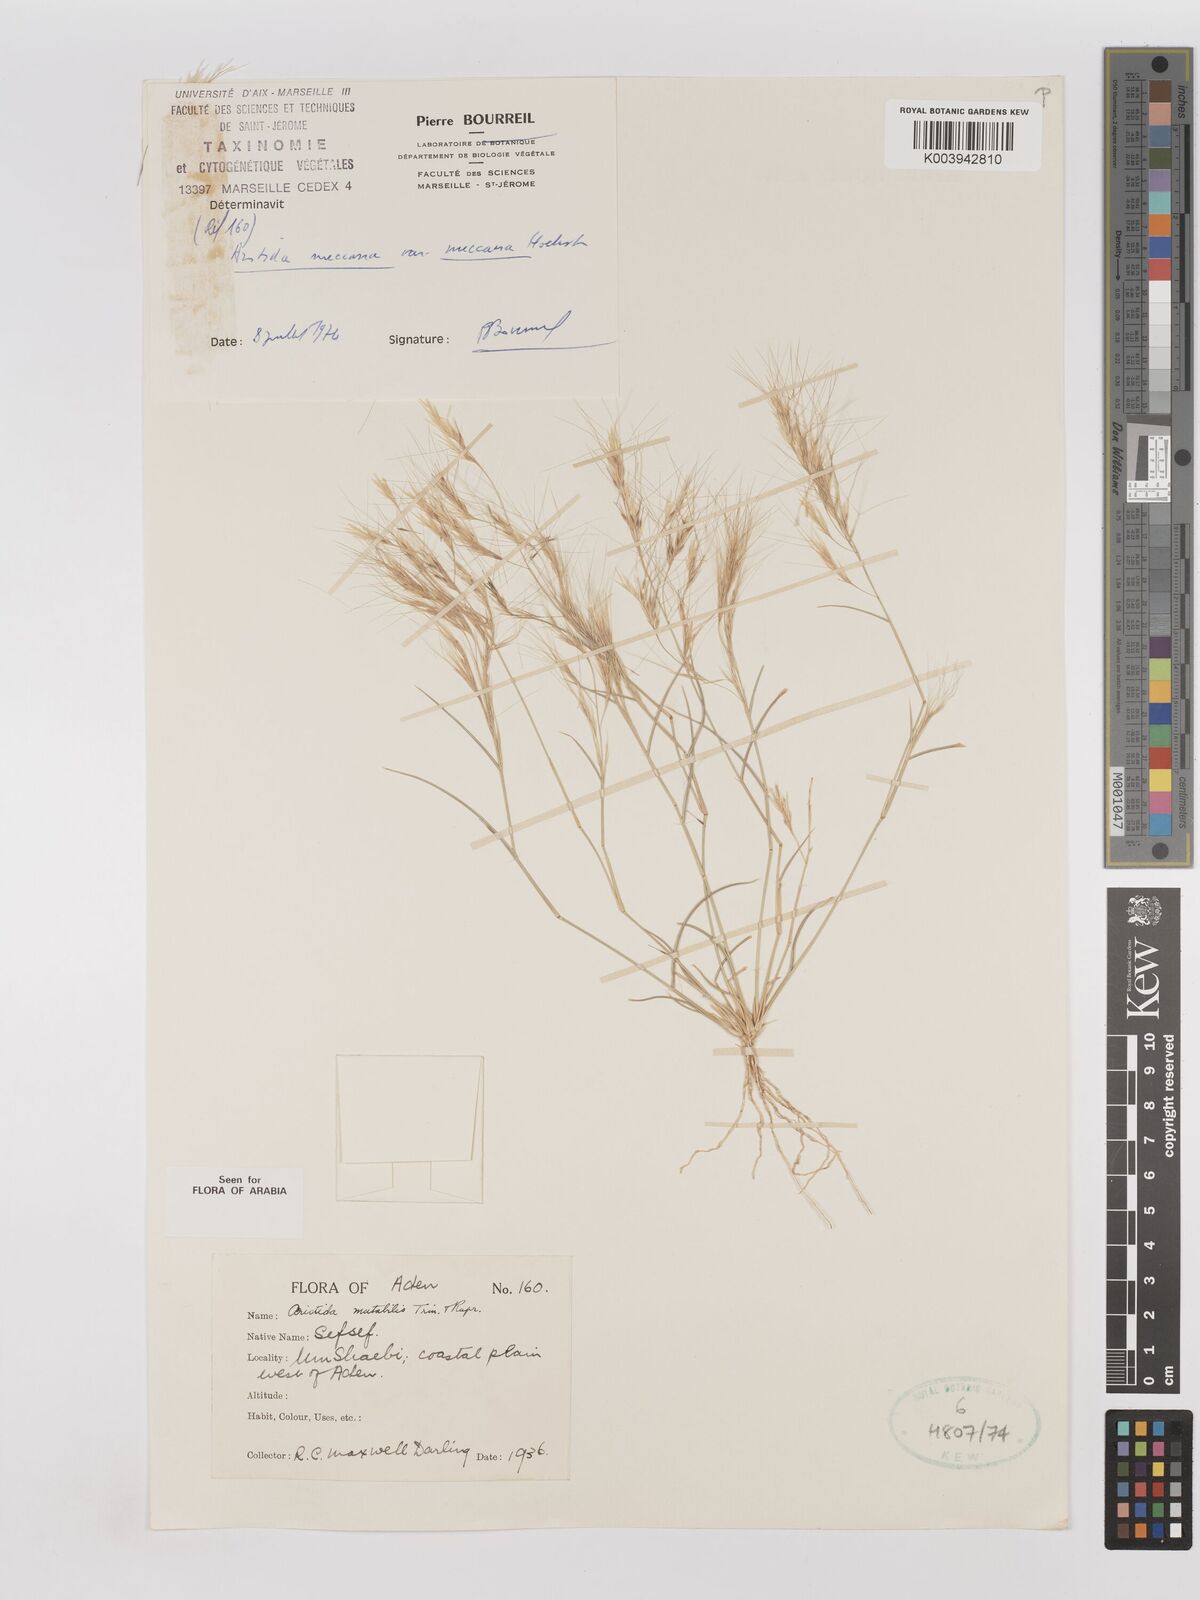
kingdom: Plantae
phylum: Tracheophyta
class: Liliopsida
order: Poales
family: Poaceae
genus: Aristida
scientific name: Aristida mutabilis
